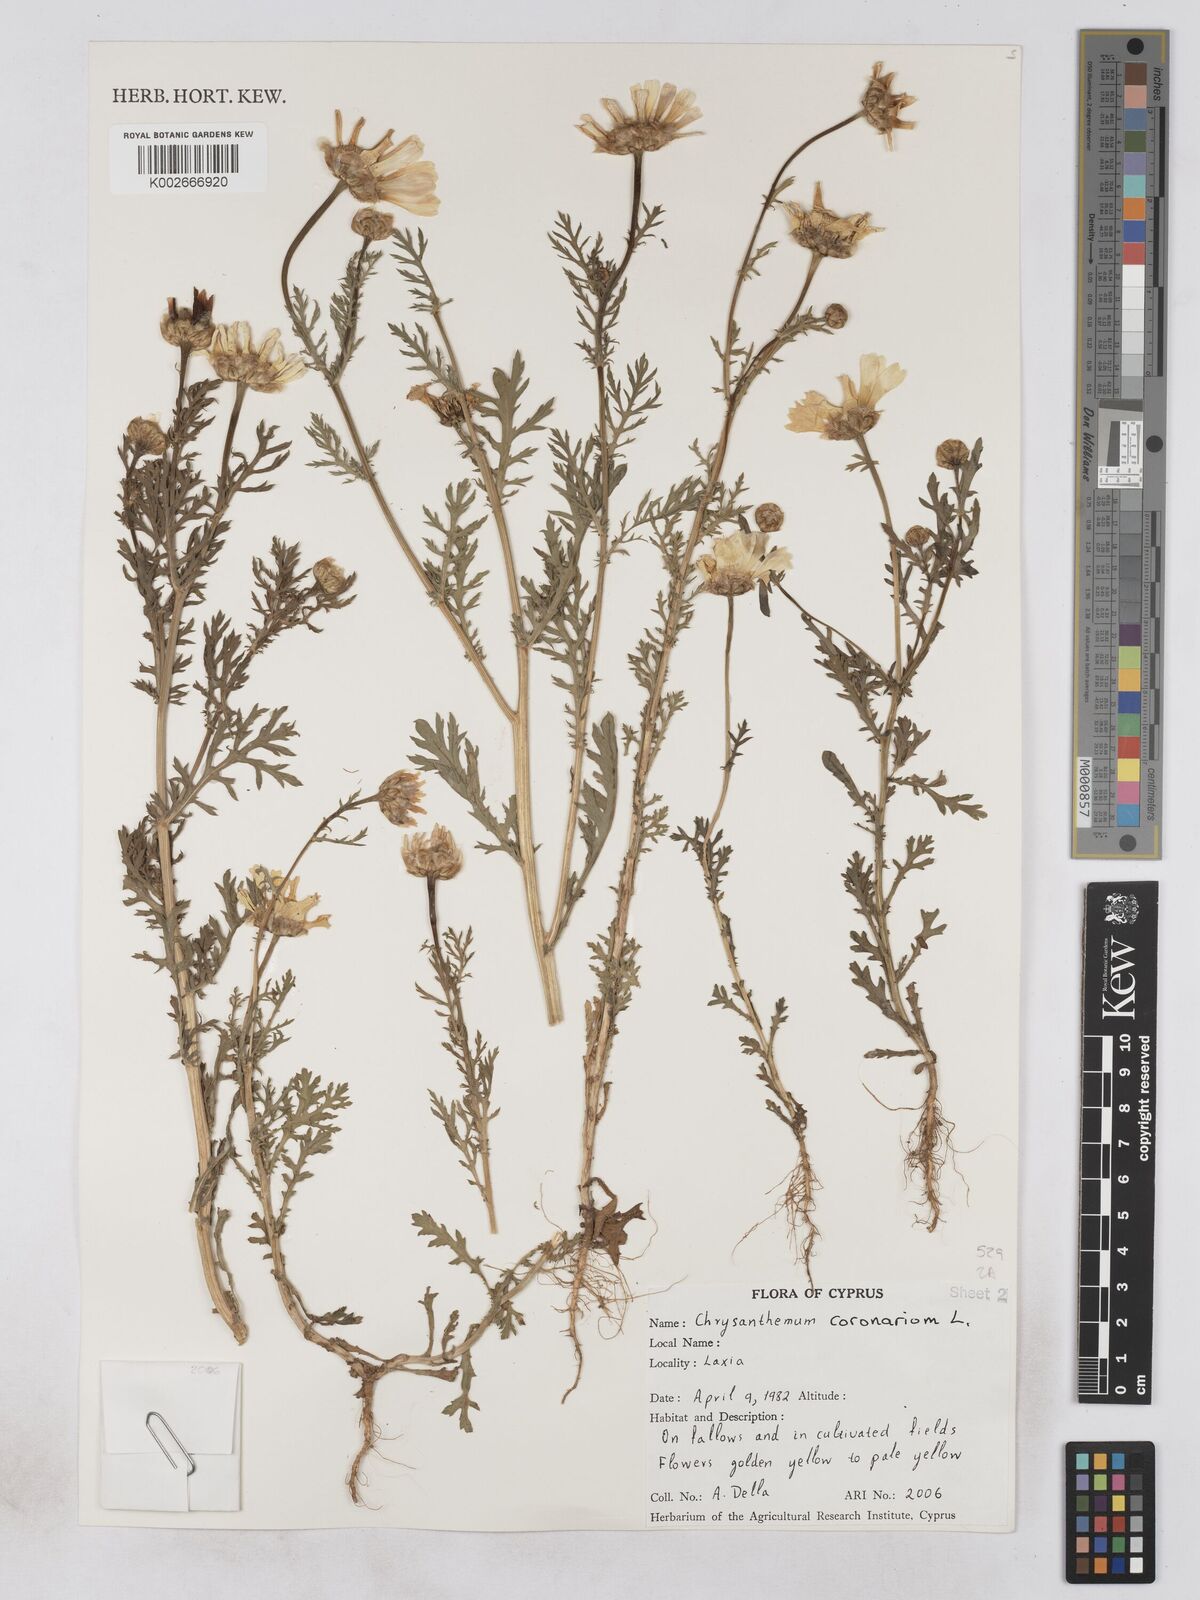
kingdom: Plantae
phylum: Tracheophyta
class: Magnoliopsida
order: Asterales
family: Asteraceae
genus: Glebionis
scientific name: Glebionis coronaria
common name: Crowndaisy
